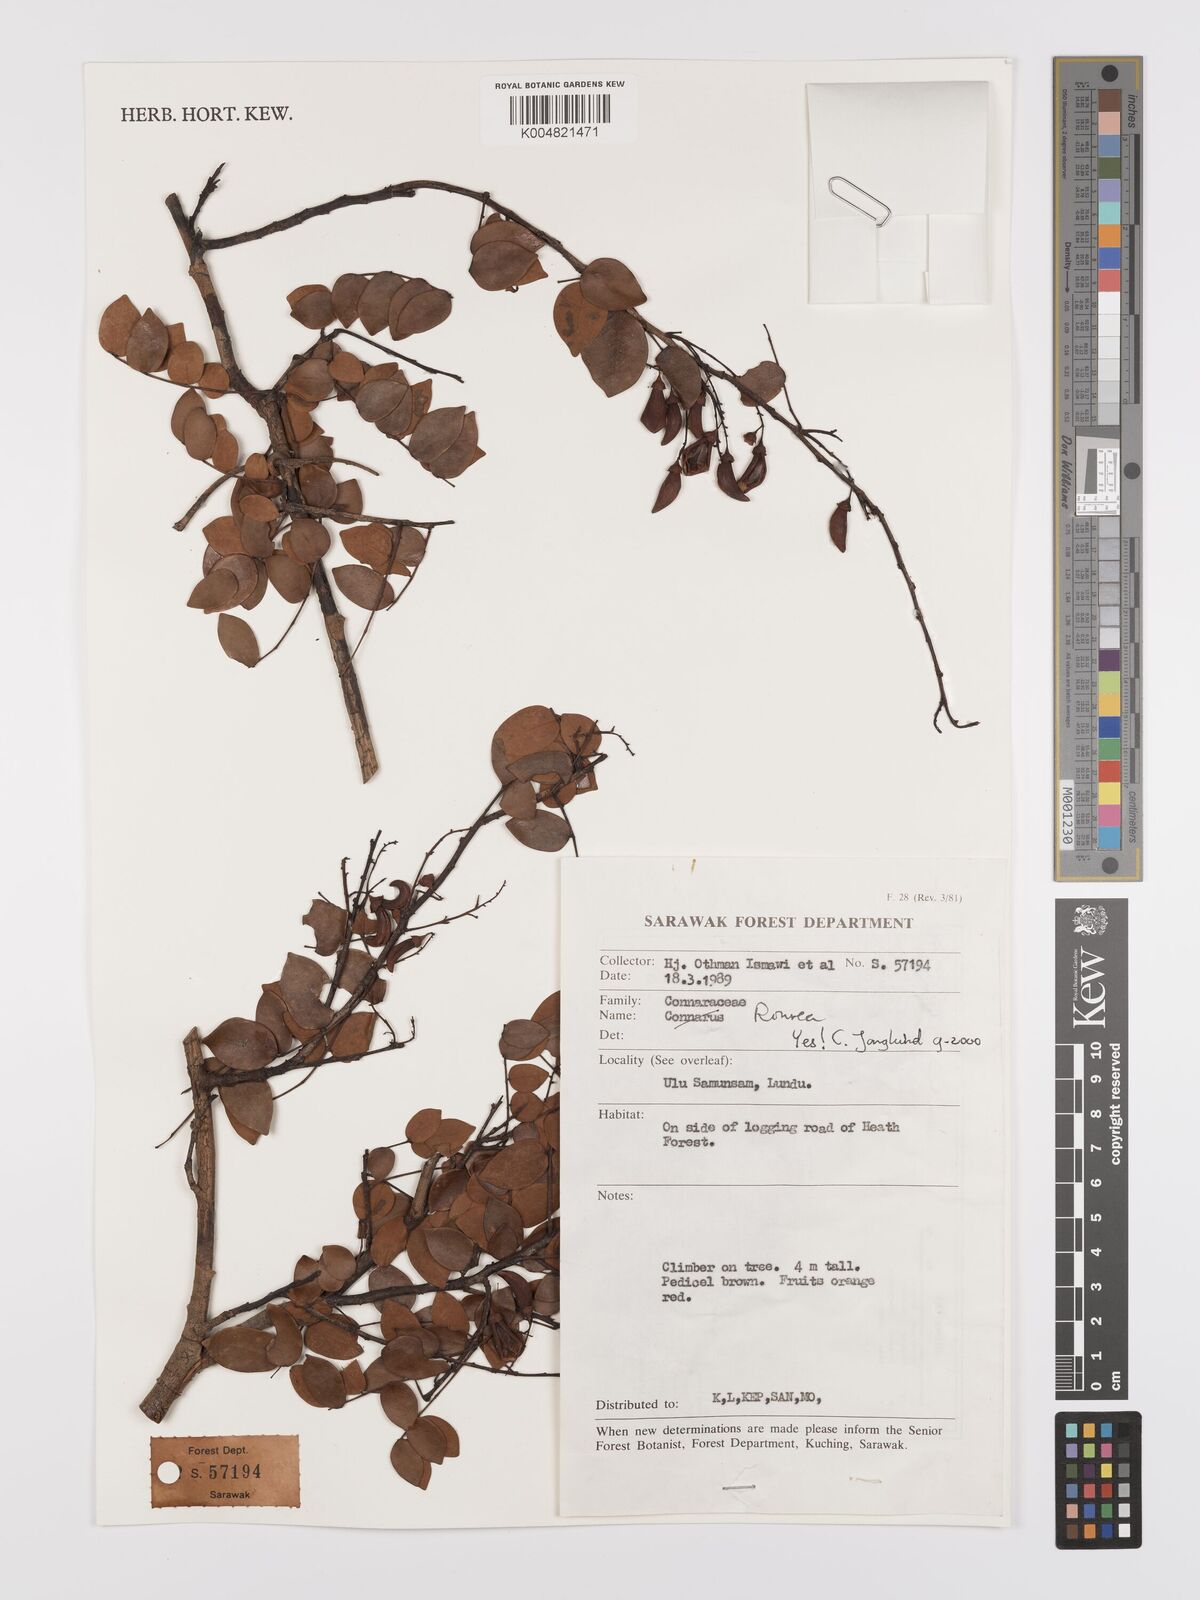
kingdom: Plantae
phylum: Tracheophyta
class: Magnoliopsida
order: Oxalidales
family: Connaraceae
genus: Rourea
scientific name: Rourea
